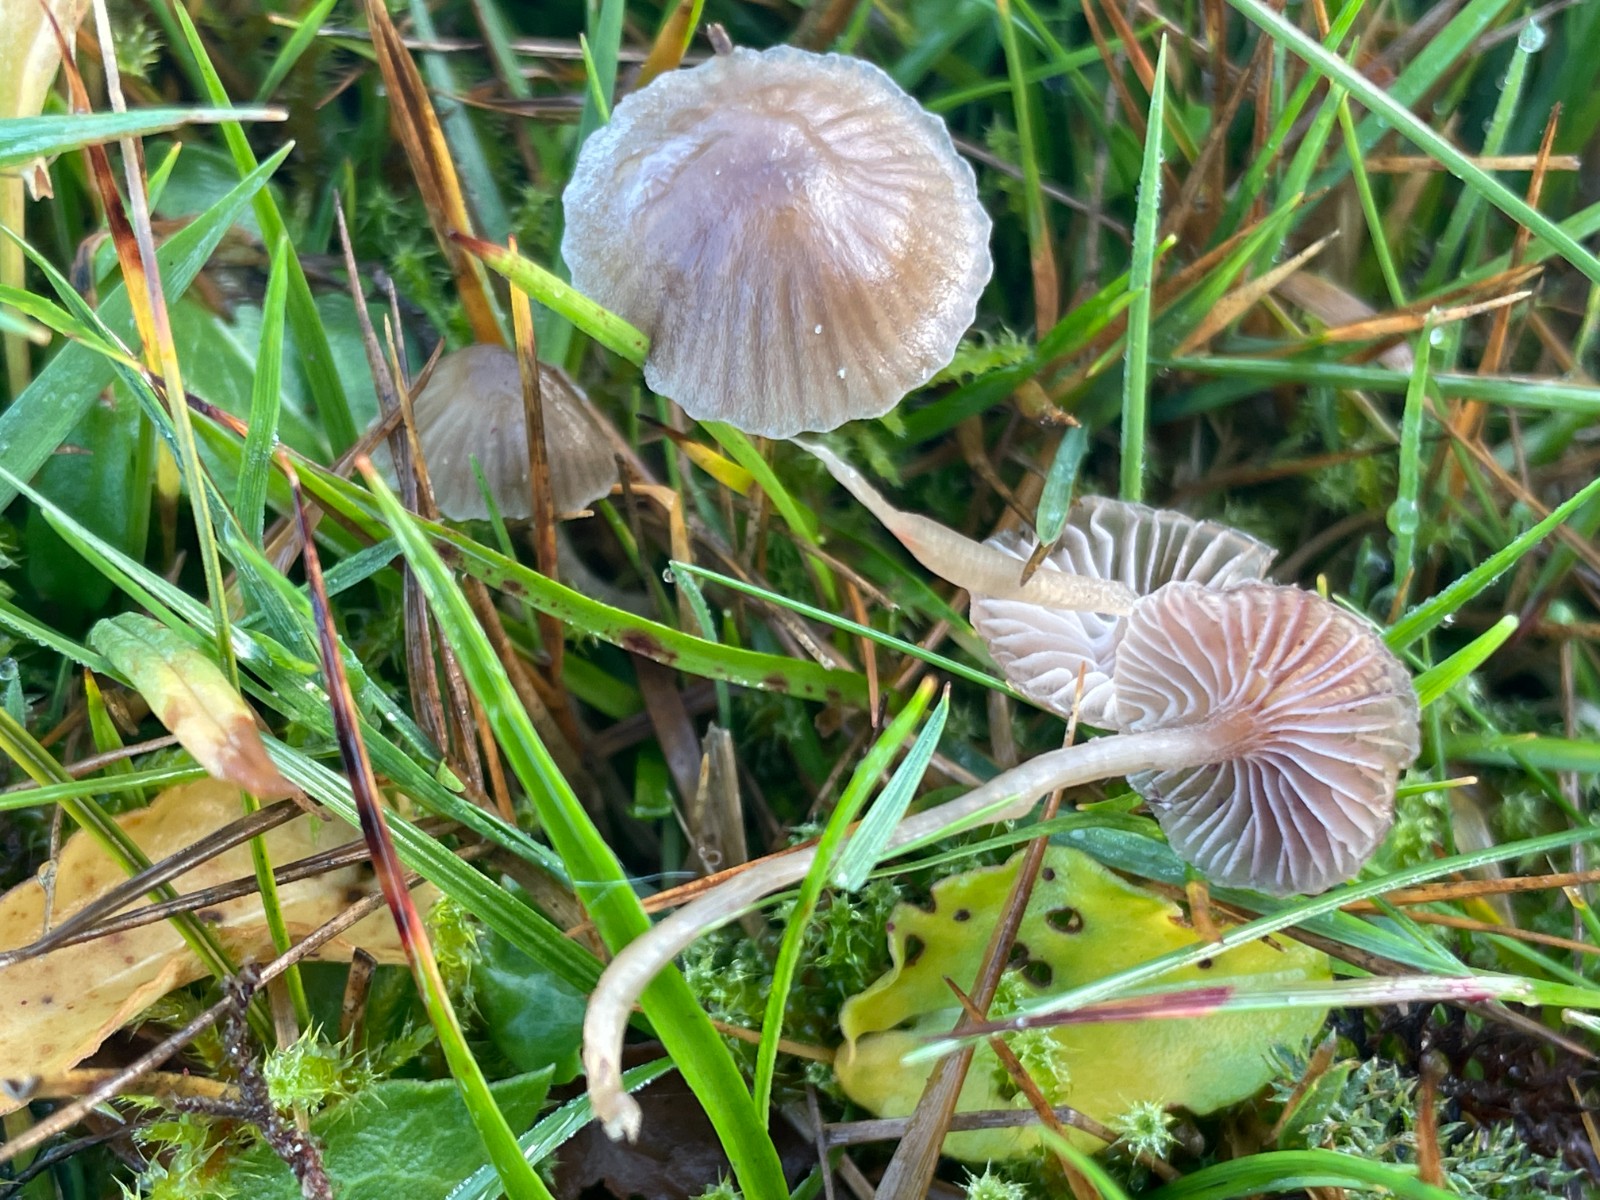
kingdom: Fungi
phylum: Basidiomycota
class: Agaricomycetes
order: Agaricales
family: Mycenaceae
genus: Mycena
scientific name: Mycena
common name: huesvamp
